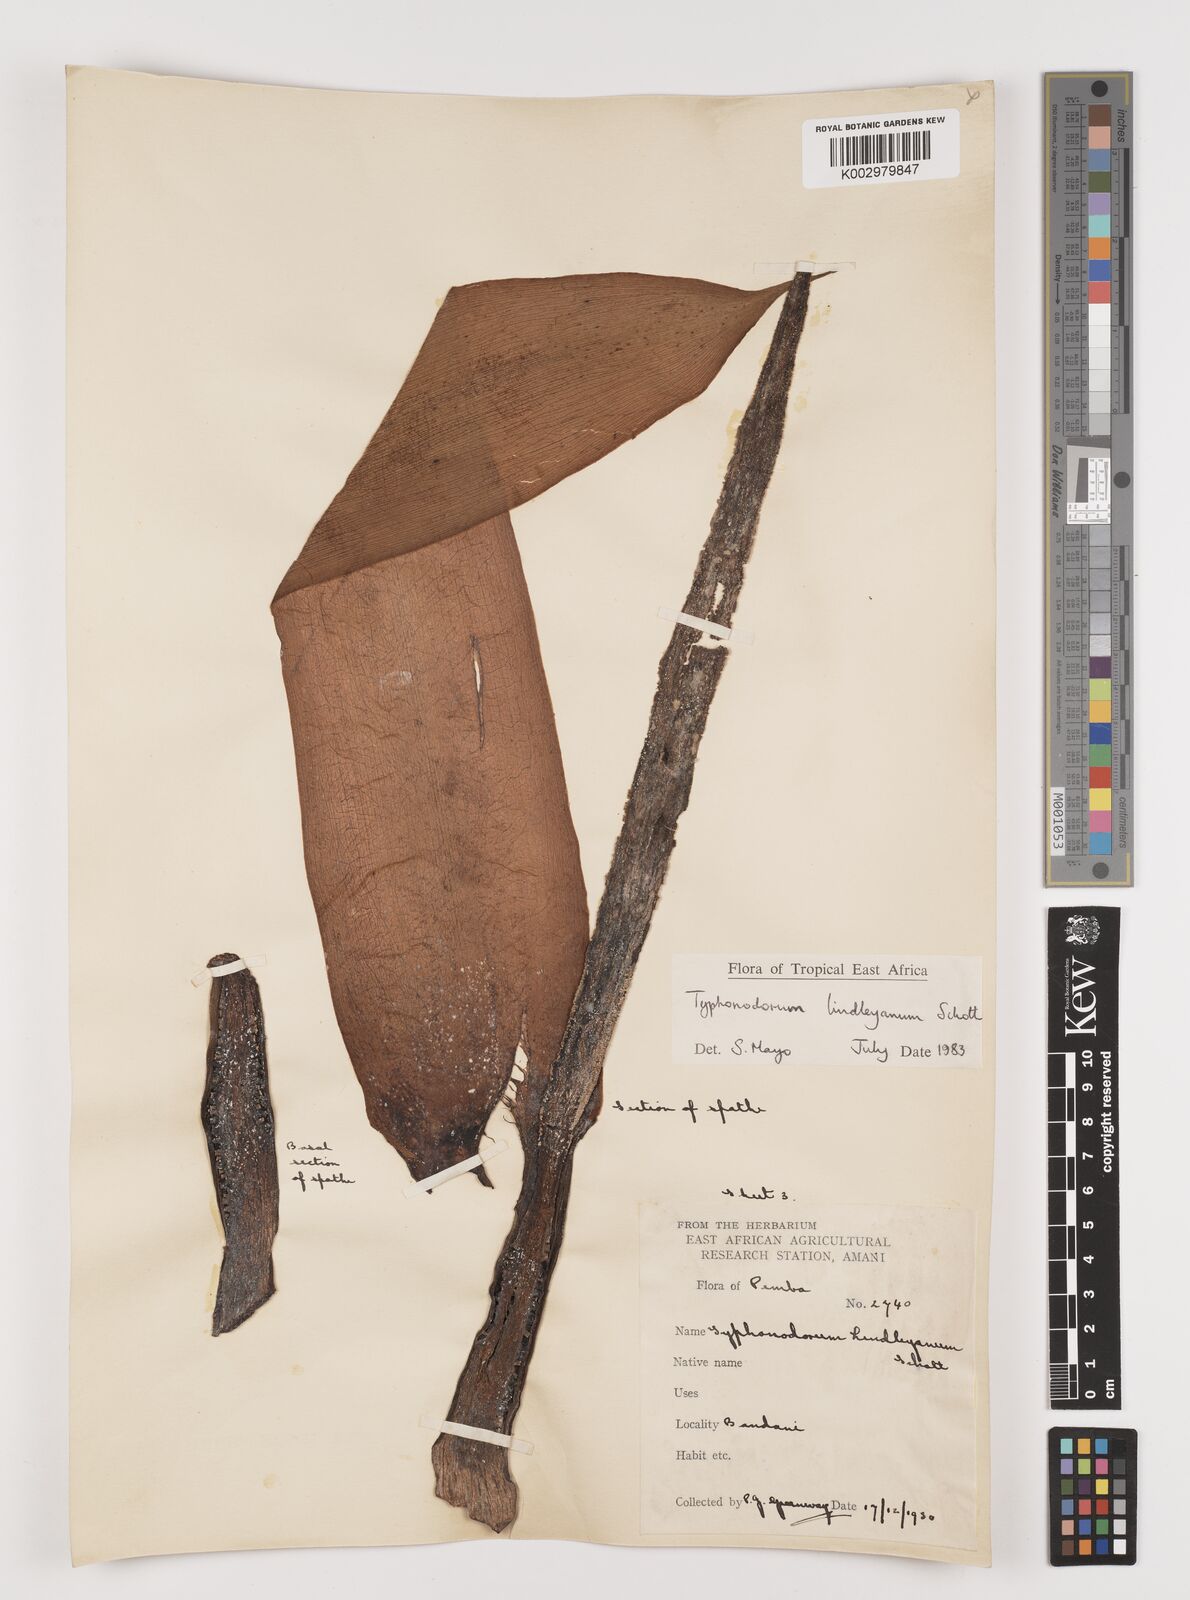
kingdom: Plantae
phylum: Tracheophyta
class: Liliopsida
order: Alismatales
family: Araceae
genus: Typhonodorum
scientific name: Typhonodorum lindleyanum
